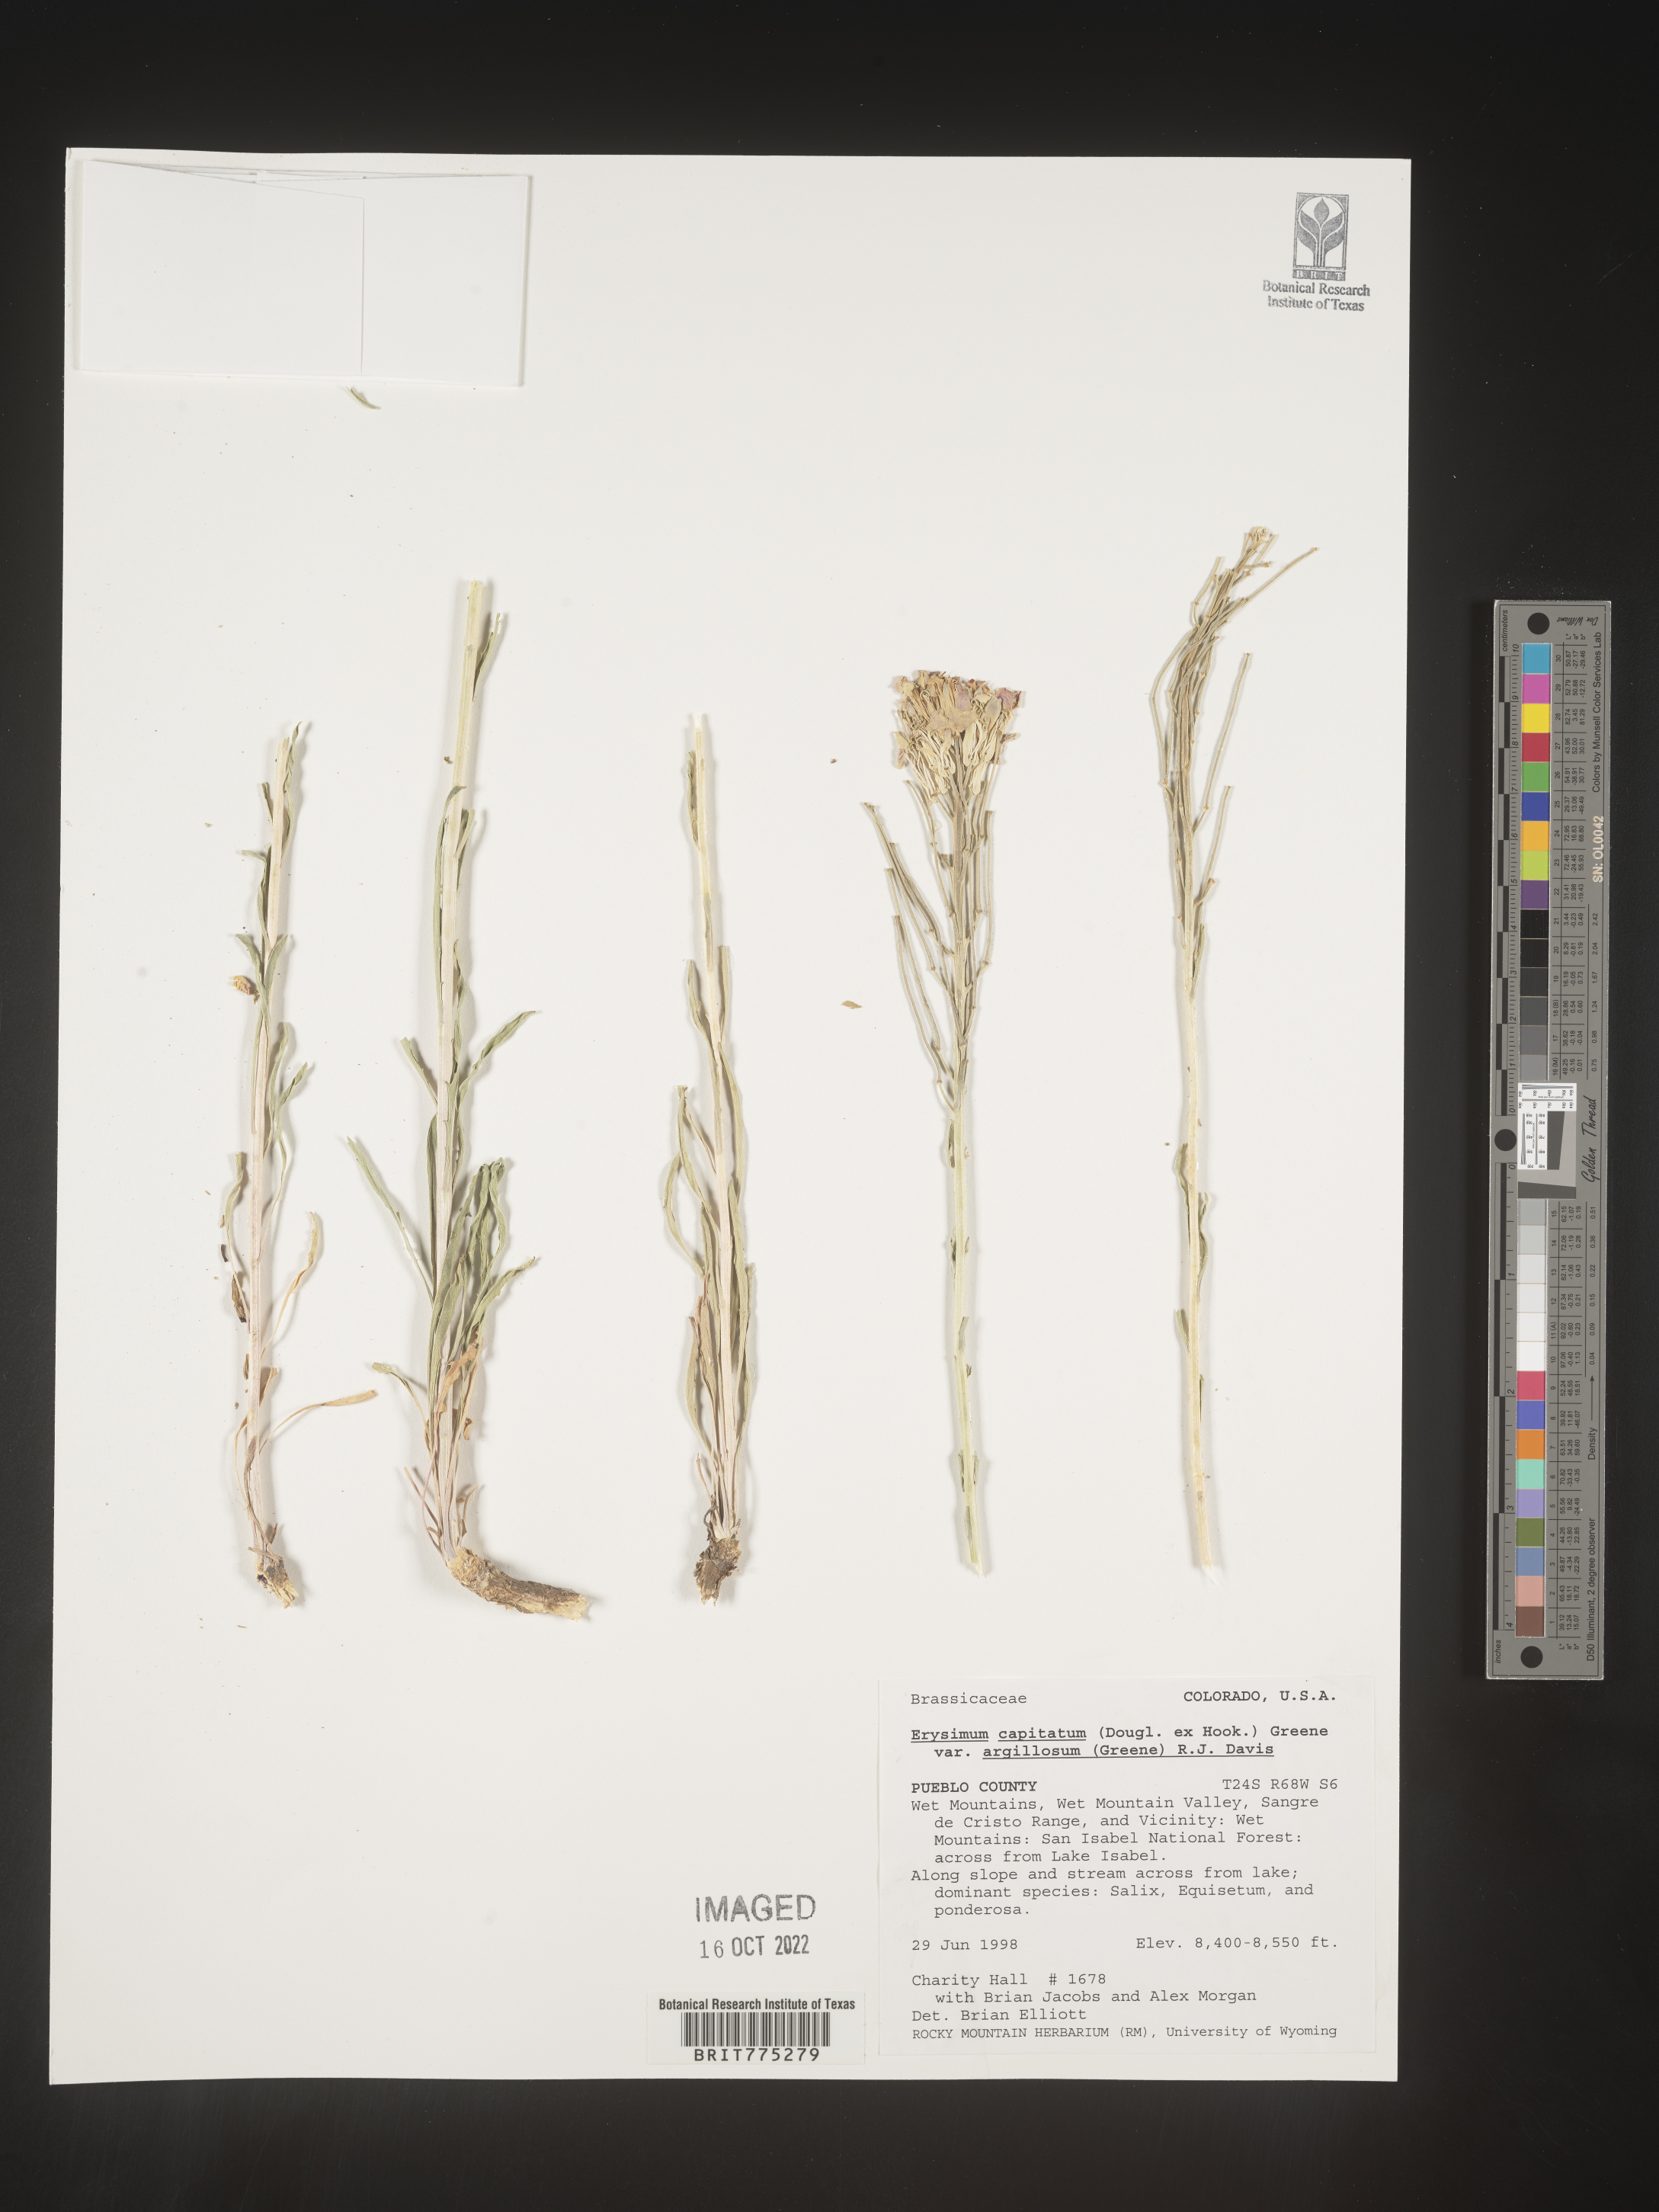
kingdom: Plantae
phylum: Tracheophyta
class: Magnoliopsida
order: Brassicales
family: Brassicaceae
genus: Erysimum
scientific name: Erysimum capitatum
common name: Western wallflower
